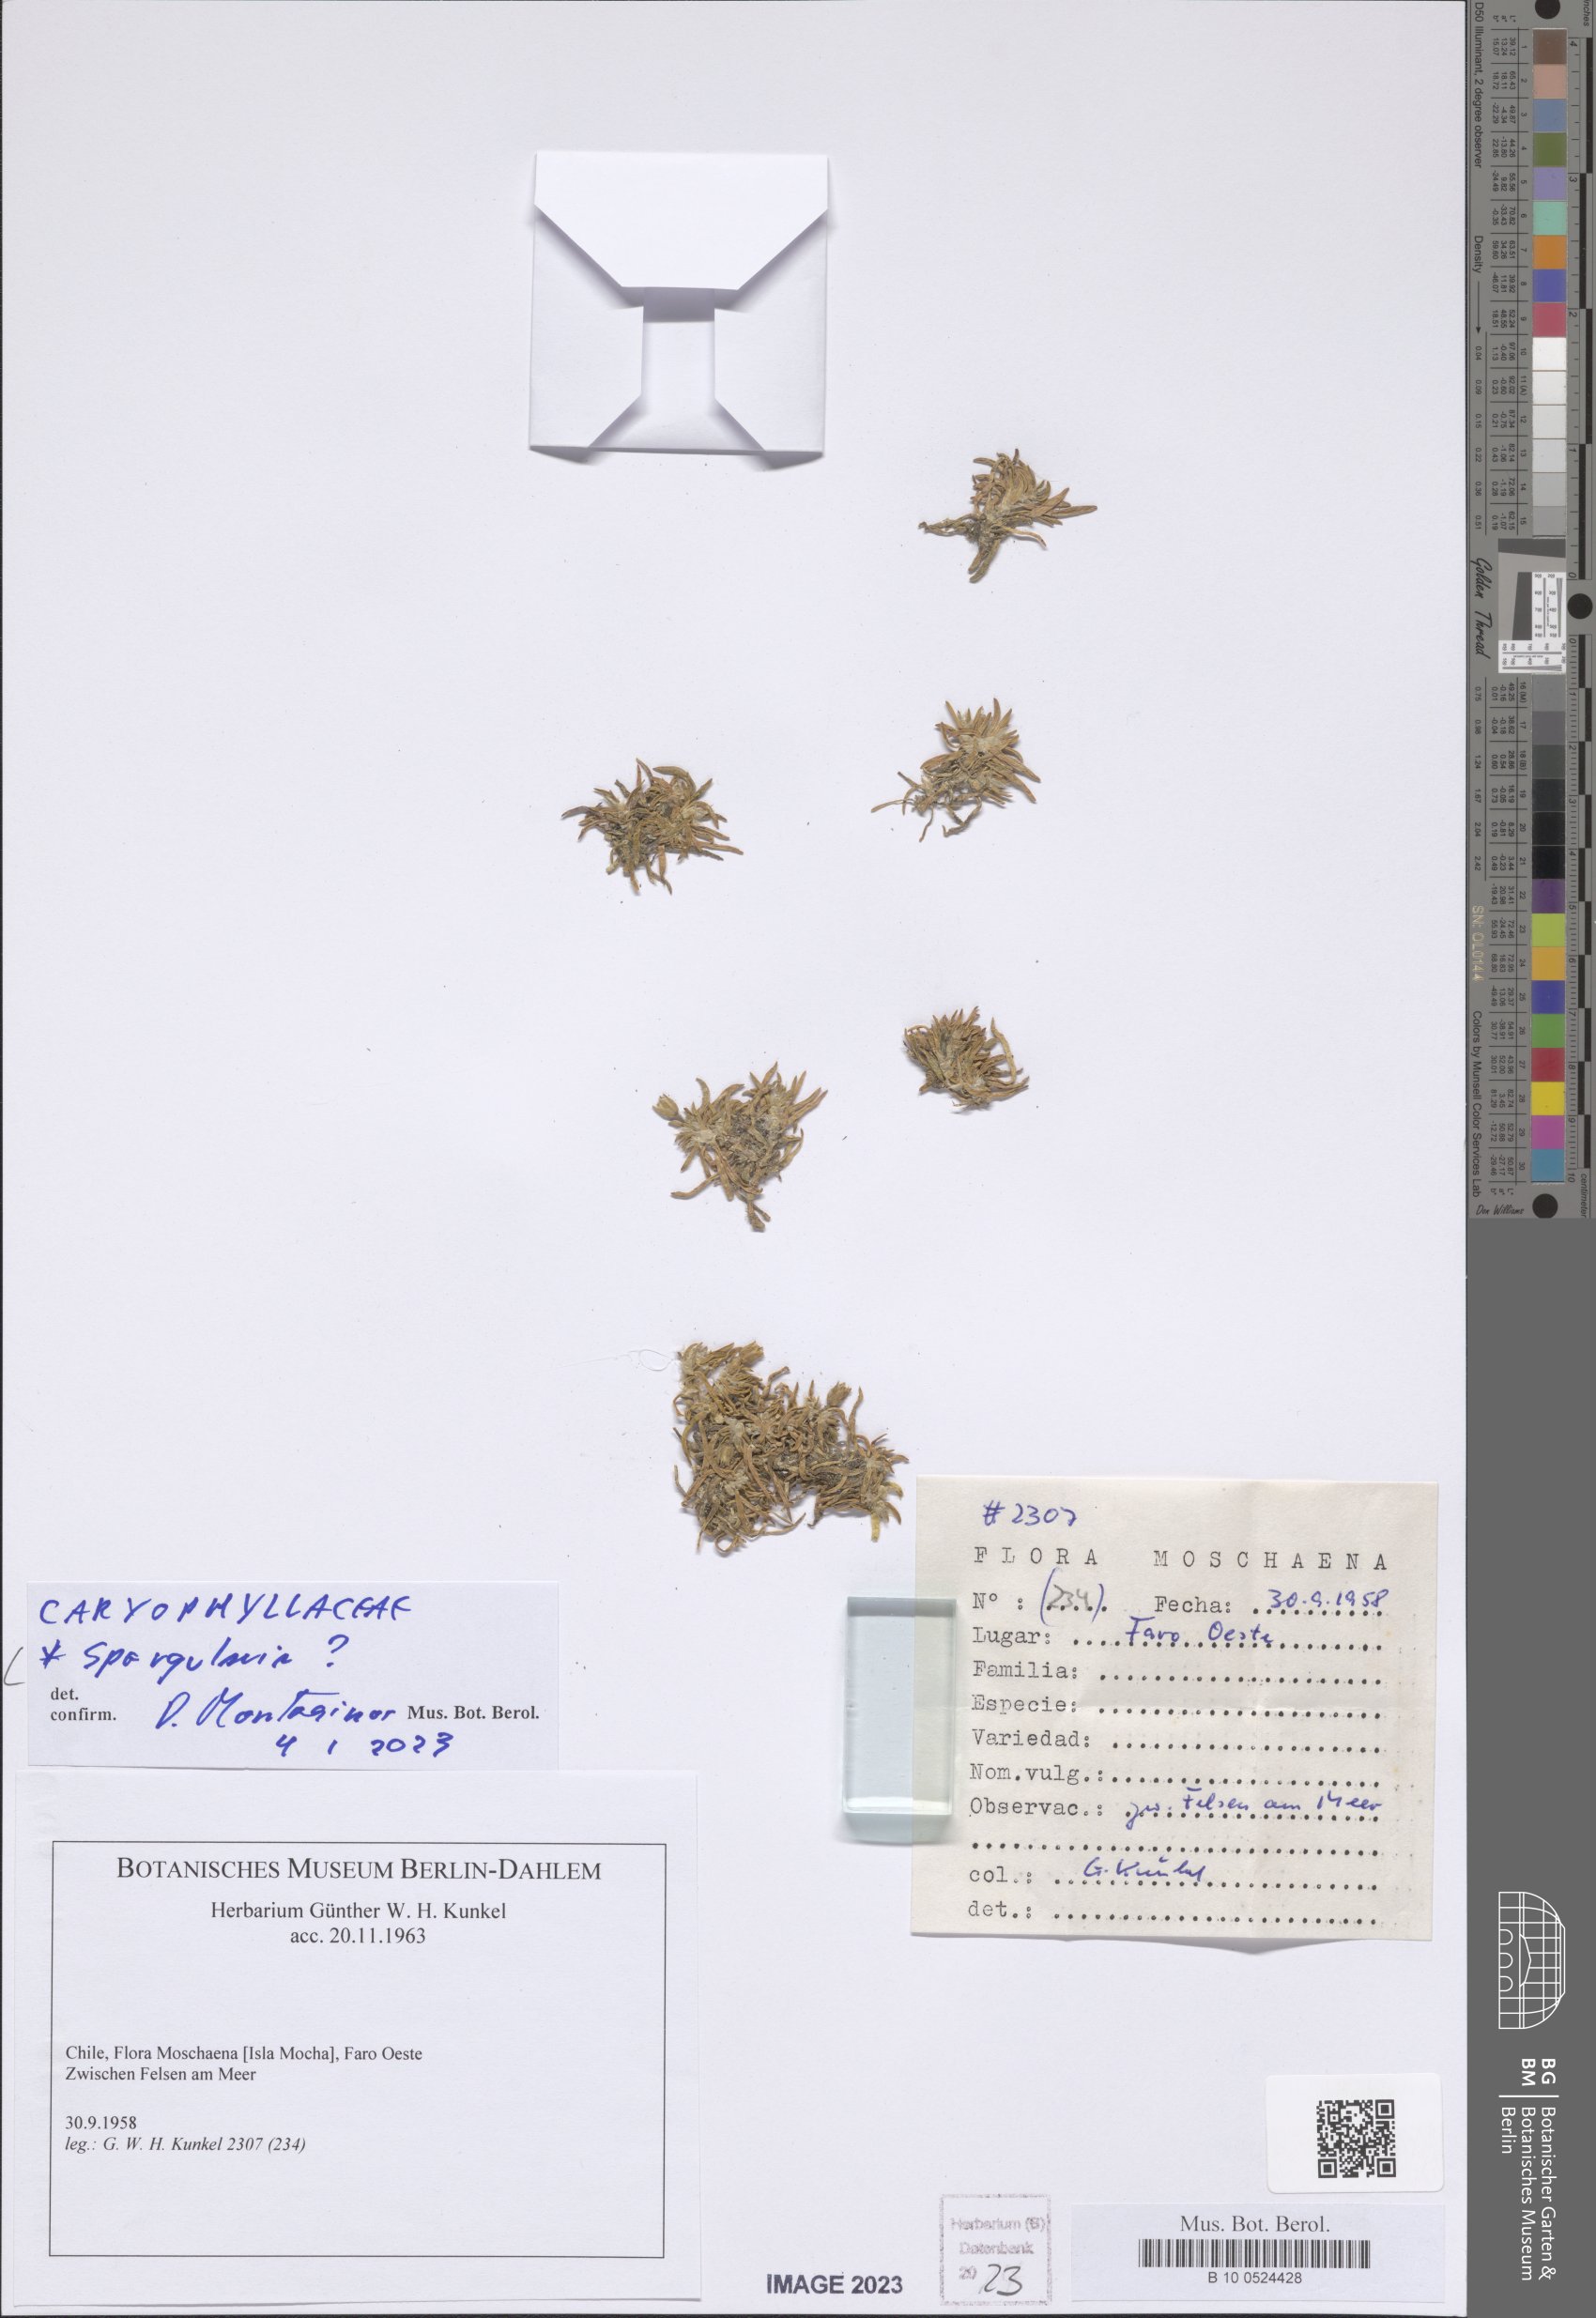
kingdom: Plantae
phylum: Tracheophyta
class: Magnoliopsida
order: Caryophyllales
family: Caryophyllaceae
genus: Spergularia
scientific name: Spergularia
